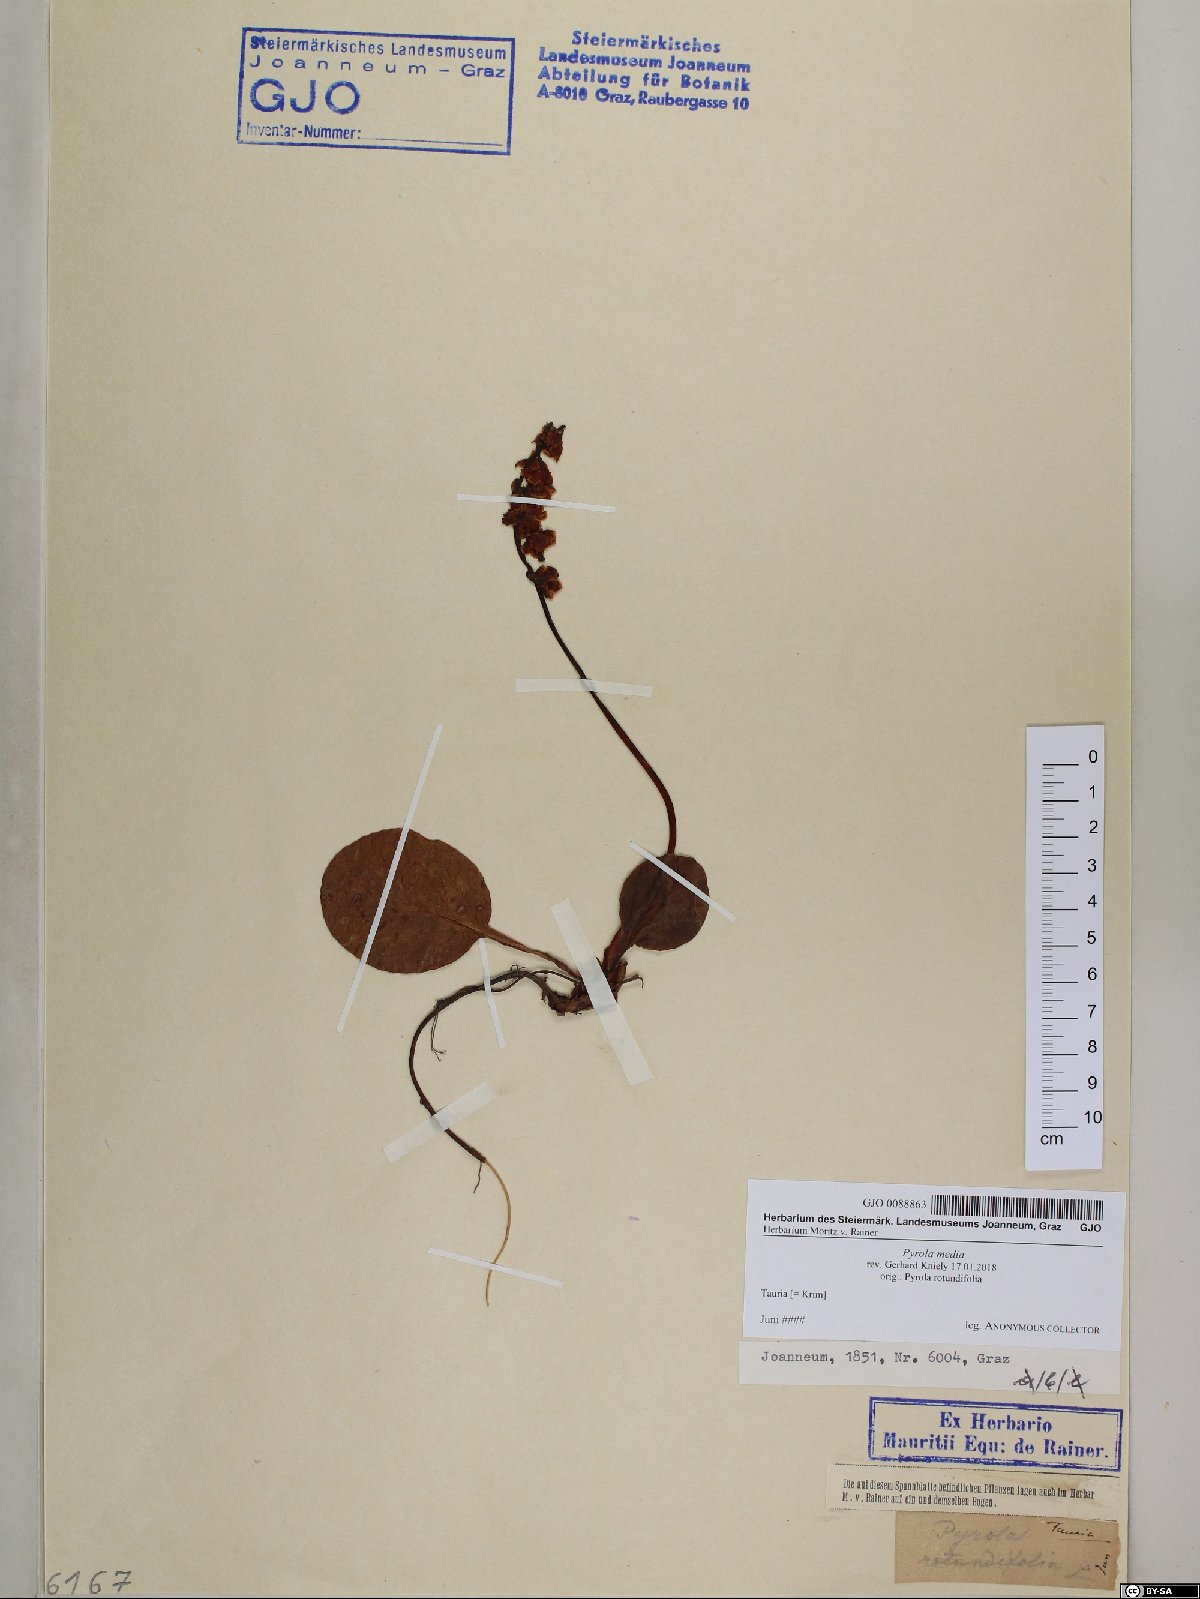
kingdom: Plantae
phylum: Tracheophyta
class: Magnoliopsida
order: Ericales
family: Ericaceae
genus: Pyrola
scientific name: Pyrola media
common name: Intermediate wintergreen
